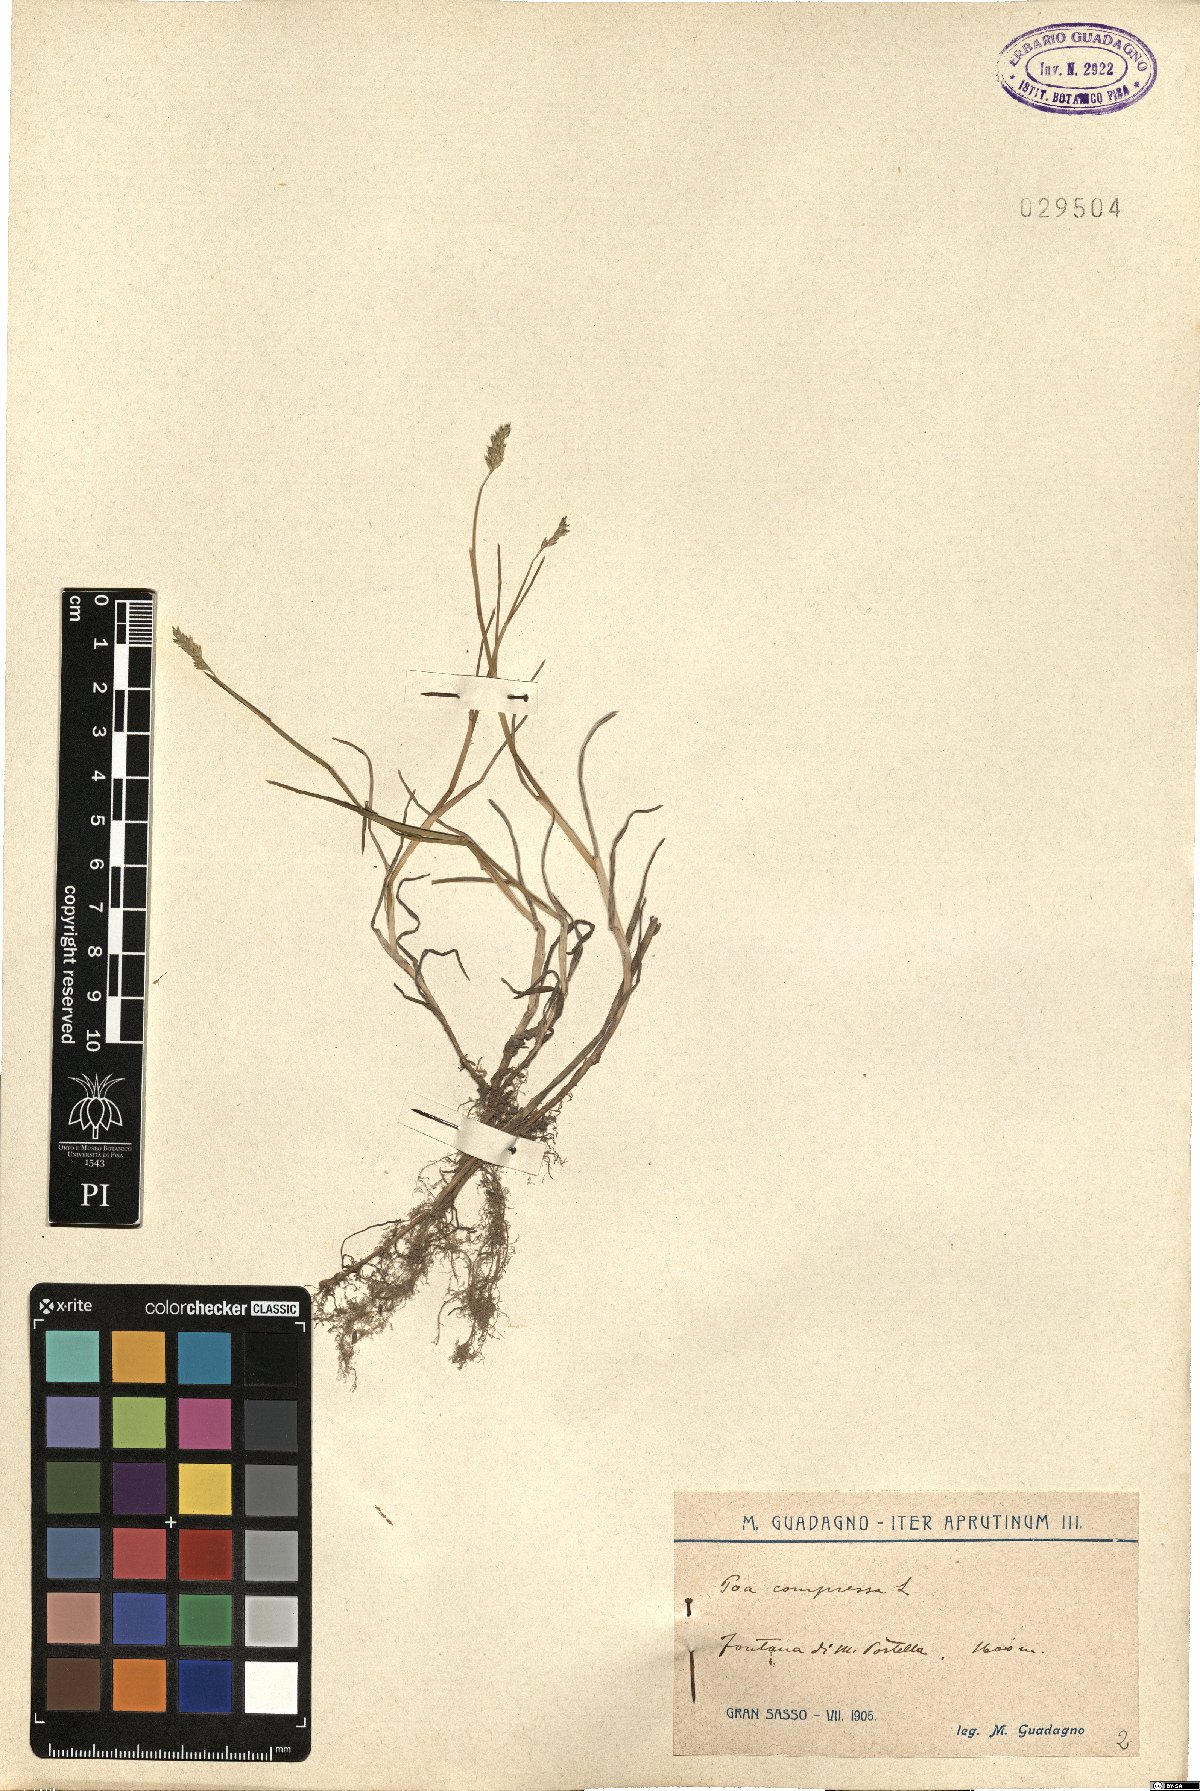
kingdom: Plantae
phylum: Tracheophyta
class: Liliopsida
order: Poales
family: Poaceae
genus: Poa
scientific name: Poa compressa
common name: Canada bluegrass
